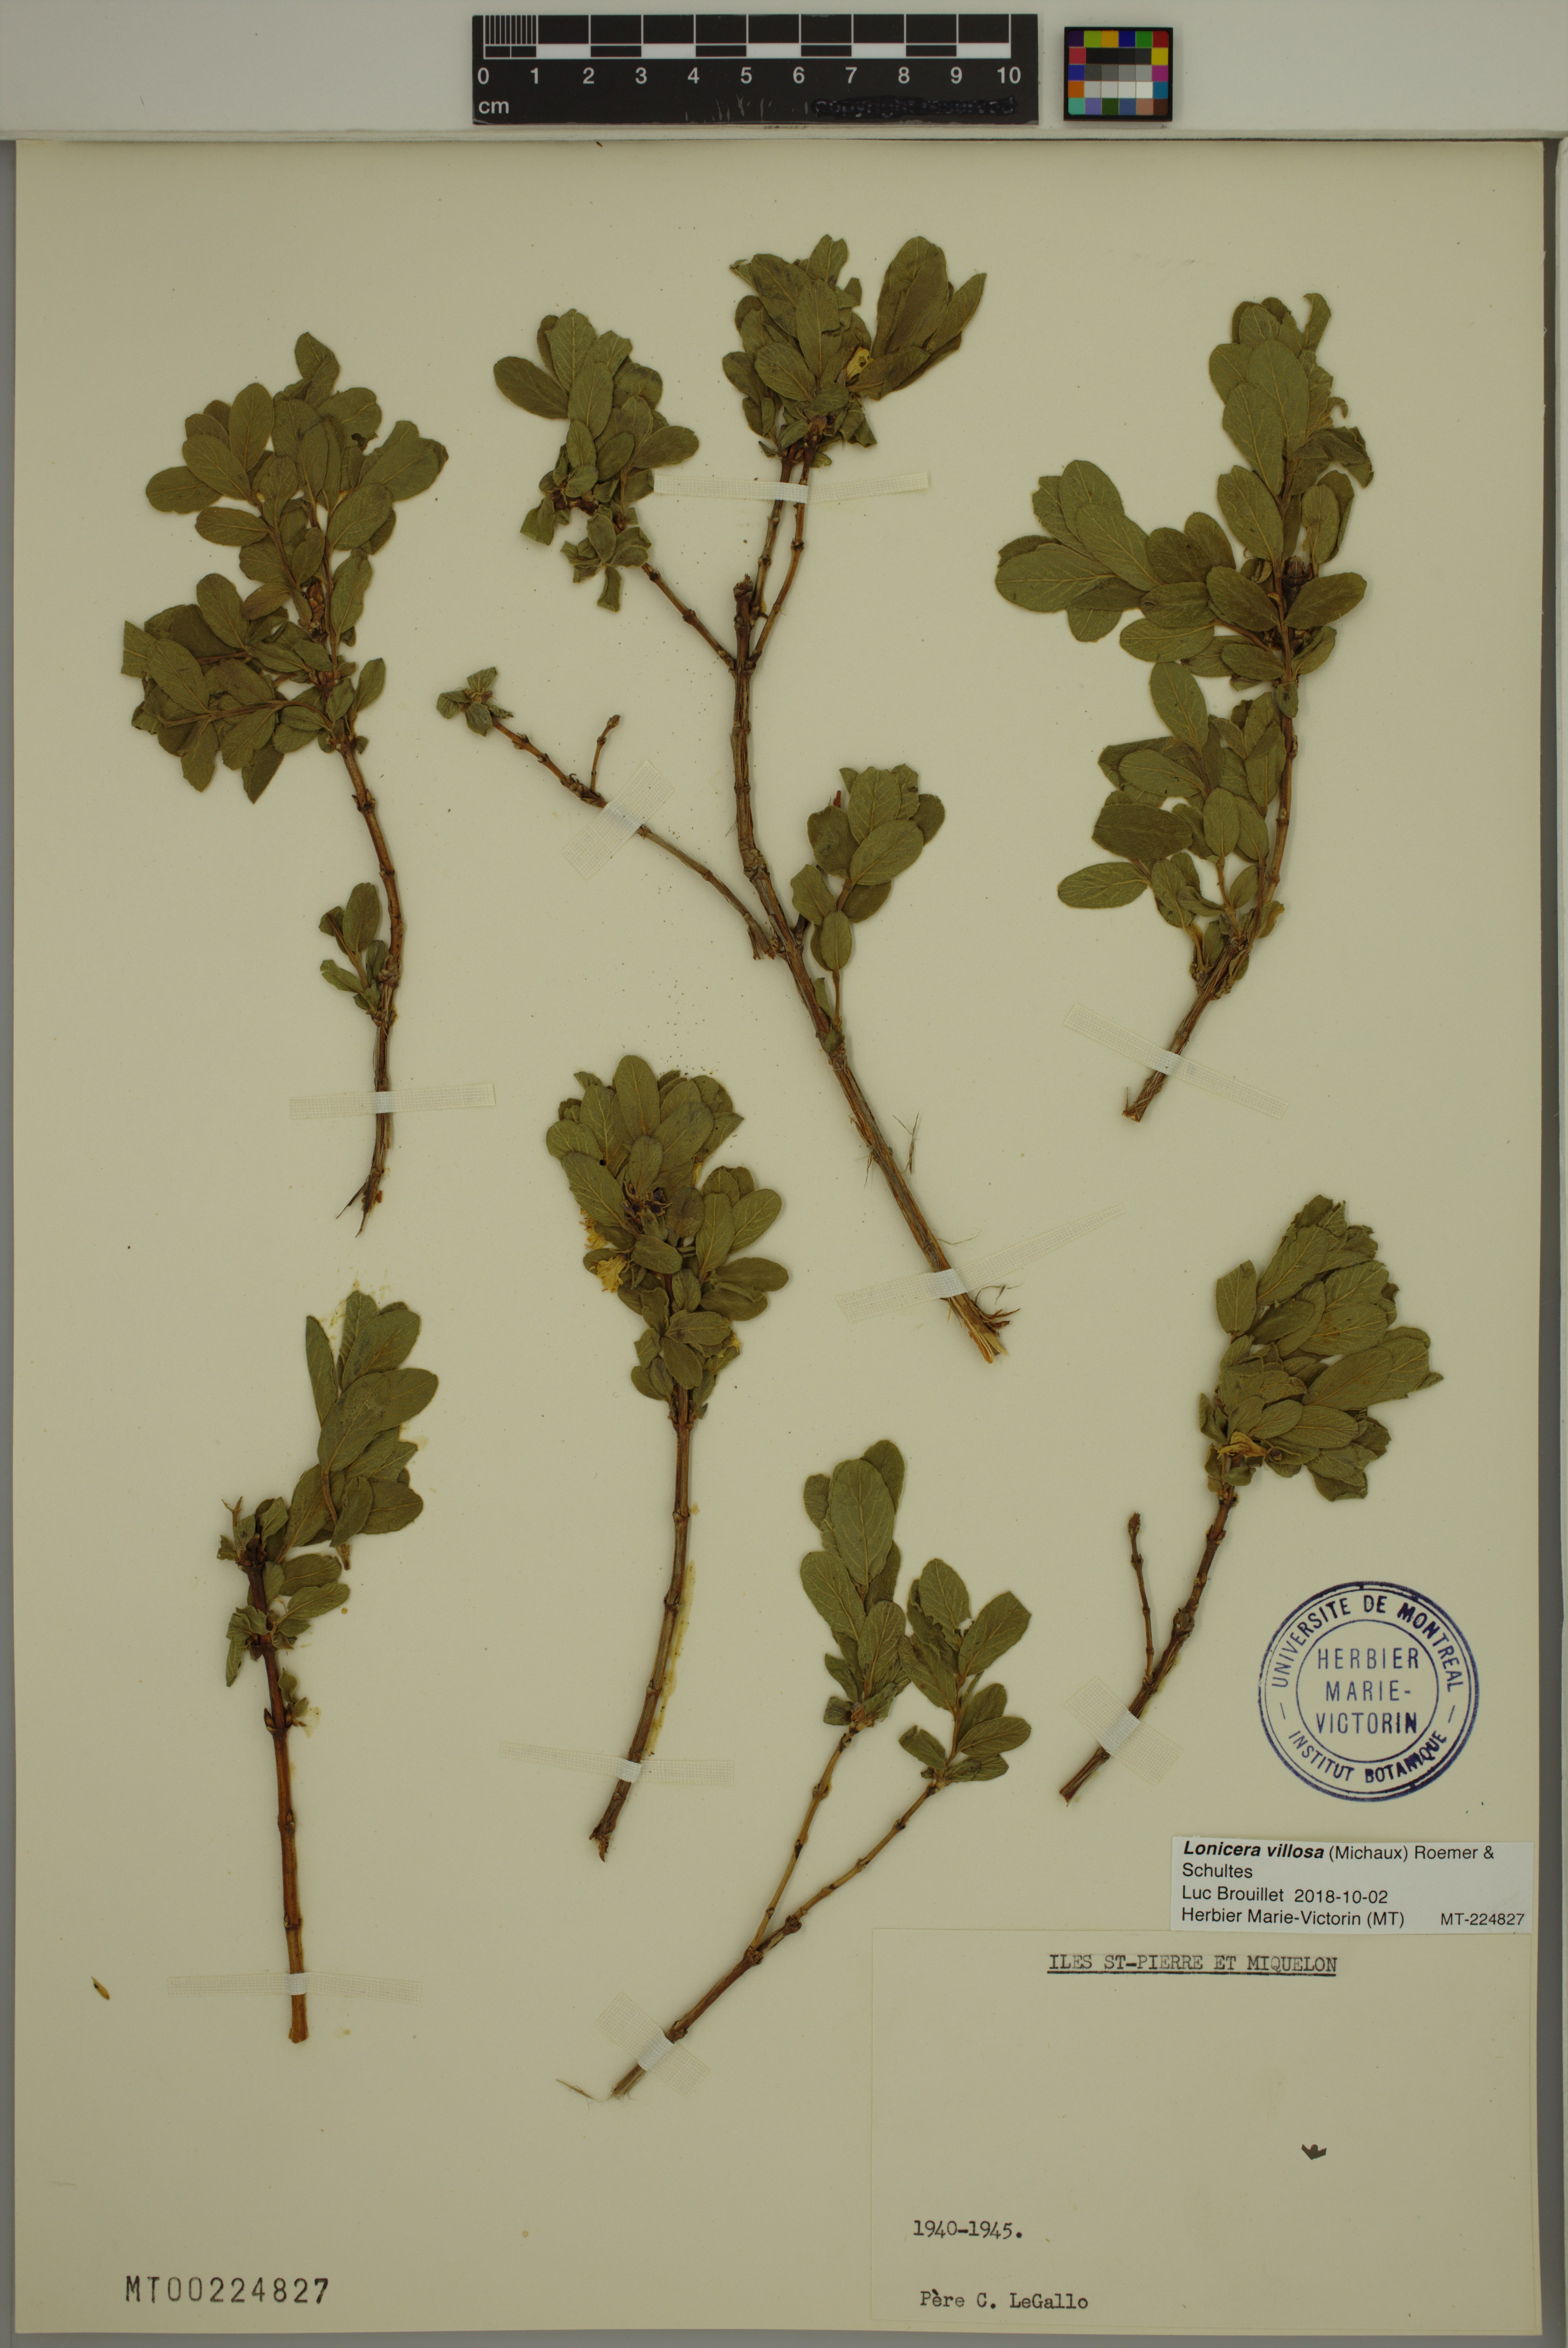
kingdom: Plantae
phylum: Tracheophyta
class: Magnoliopsida
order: Dipsacales
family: Caprifoliaceae
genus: Lonicera
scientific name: Lonicera villosa
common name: Mountain fly-honeysuckle
